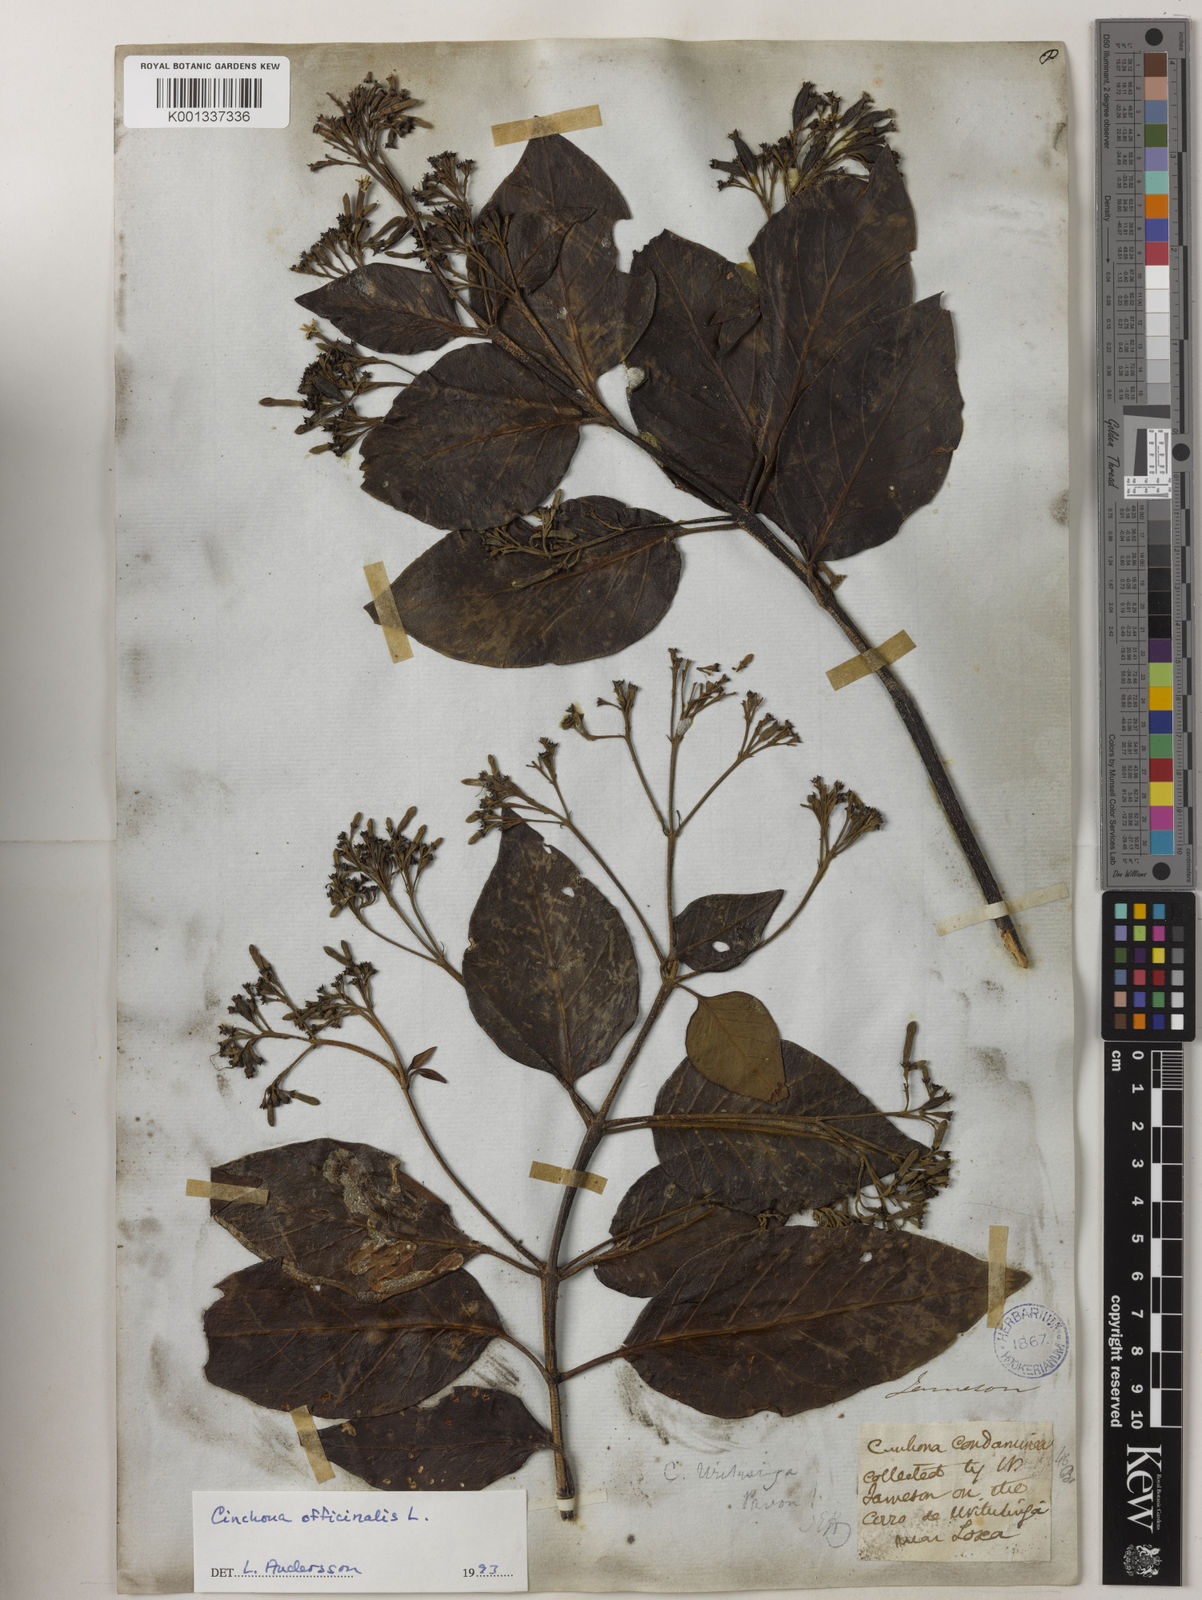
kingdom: Plantae
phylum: Tracheophyta
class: Magnoliopsida
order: Gentianales
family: Rubiaceae
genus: Cinchona
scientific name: Cinchona officinalis
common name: Lojabark
